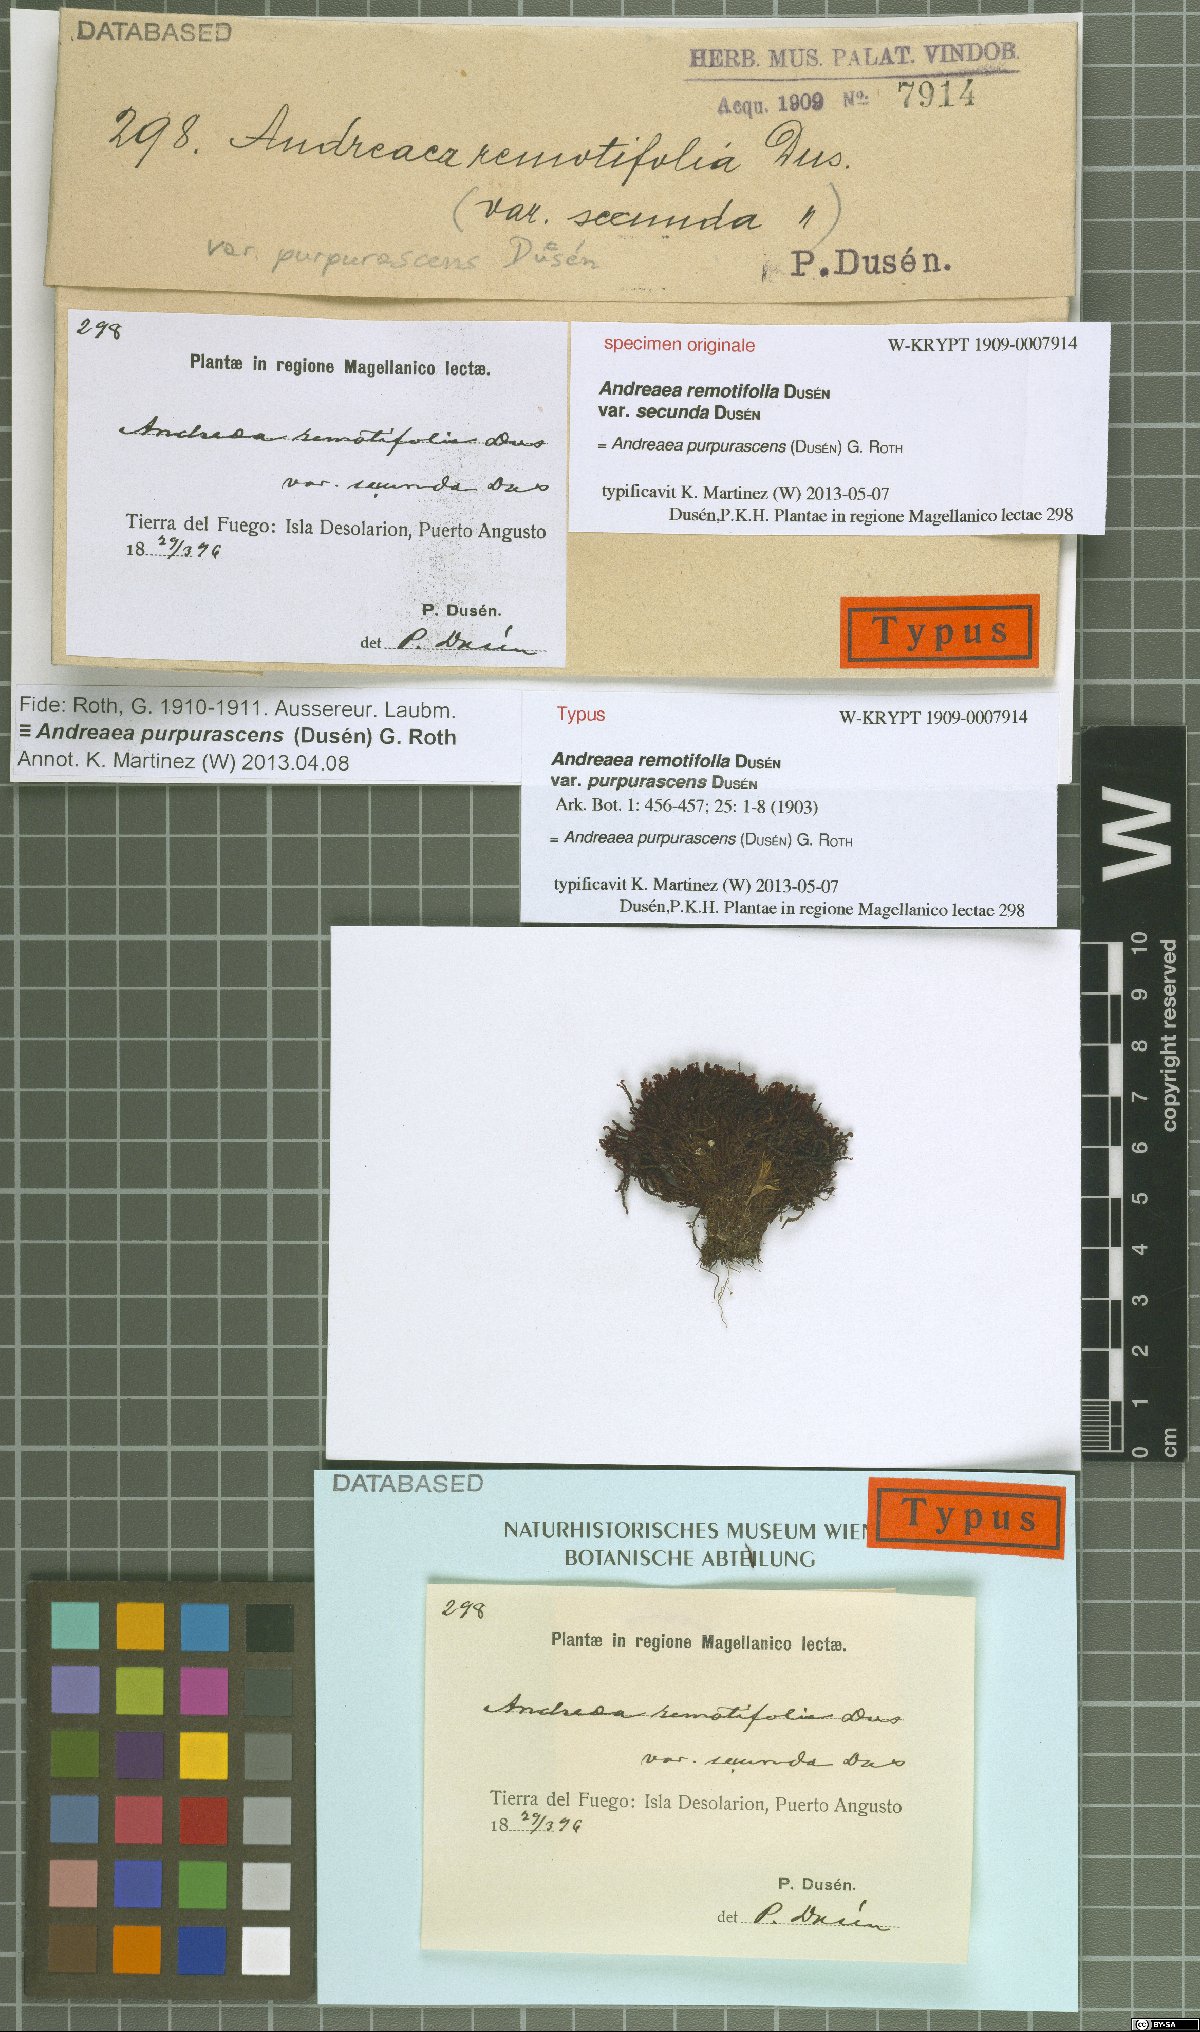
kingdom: Plantae
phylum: Bryophyta
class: Andreaeopsida
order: Andreaeales
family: Andreaeaceae
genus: Andreaea
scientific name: Andreaea purpurascens
